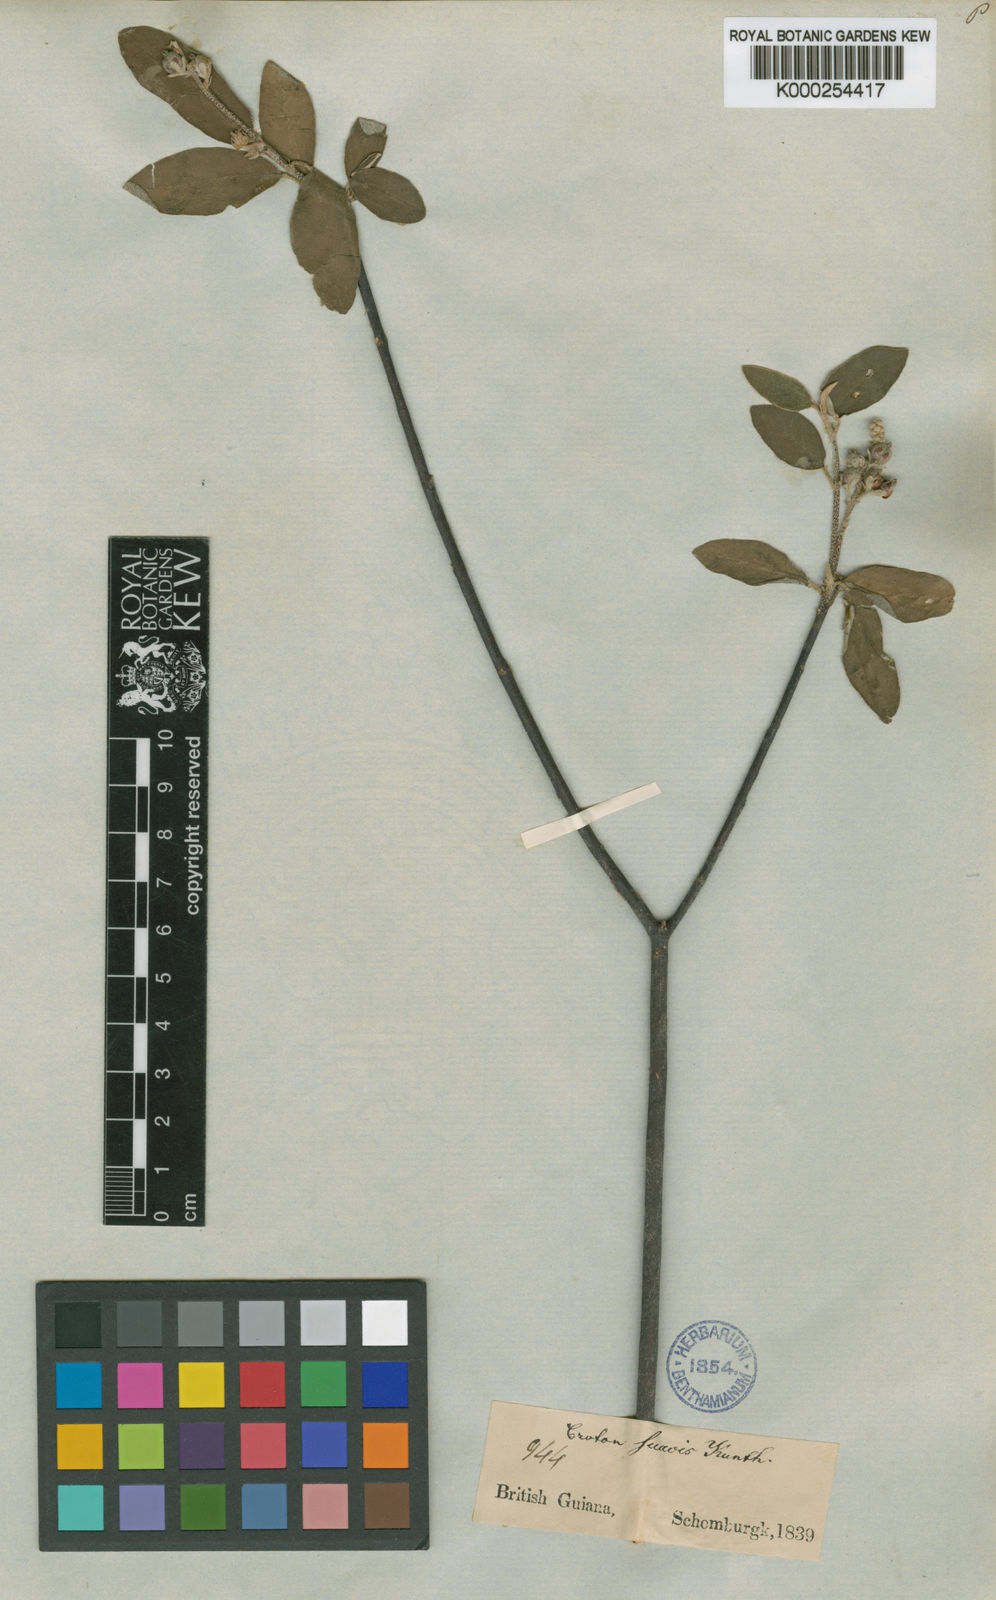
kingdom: Plantae
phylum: Tracheophyta
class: Magnoliopsida
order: Malpighiales
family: Euphorbiaceae
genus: Croton
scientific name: Croton suavis
